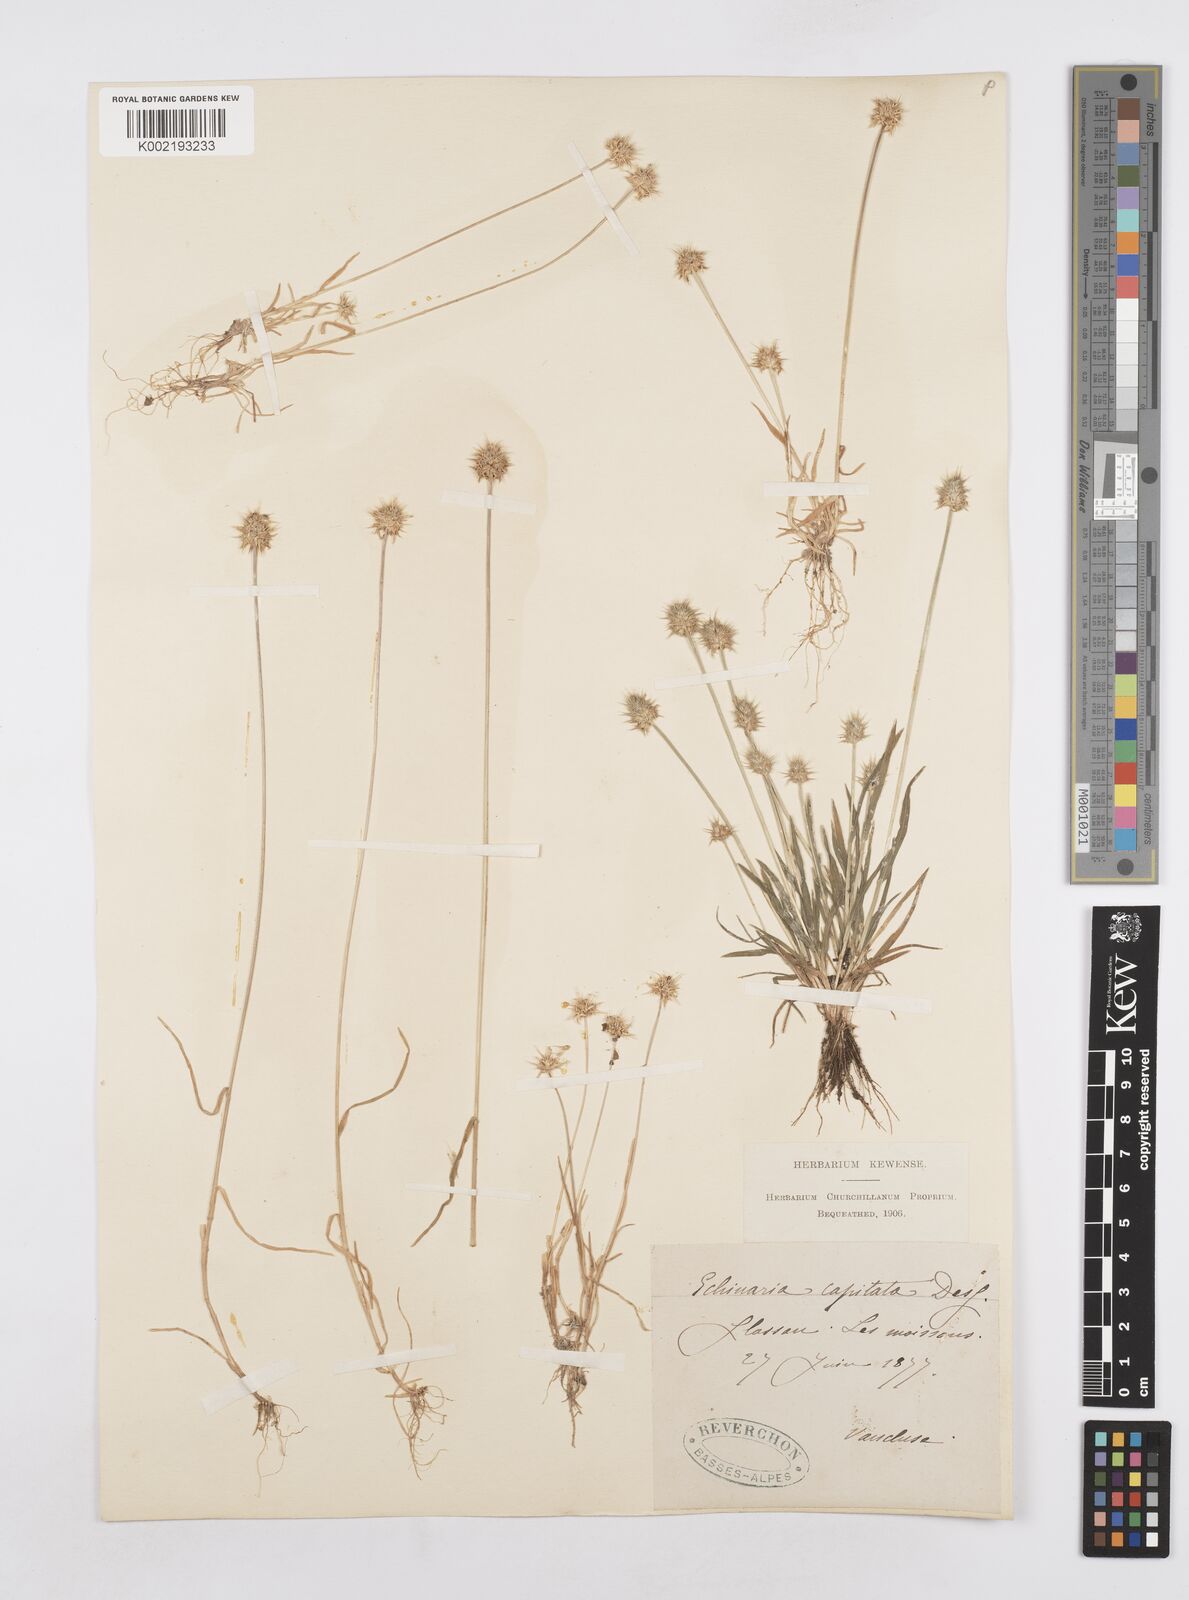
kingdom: Plantae
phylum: Tracheophyta
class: Liliopsida
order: Poales
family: Poaceae
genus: Echinaria
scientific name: Echinaria capitata
